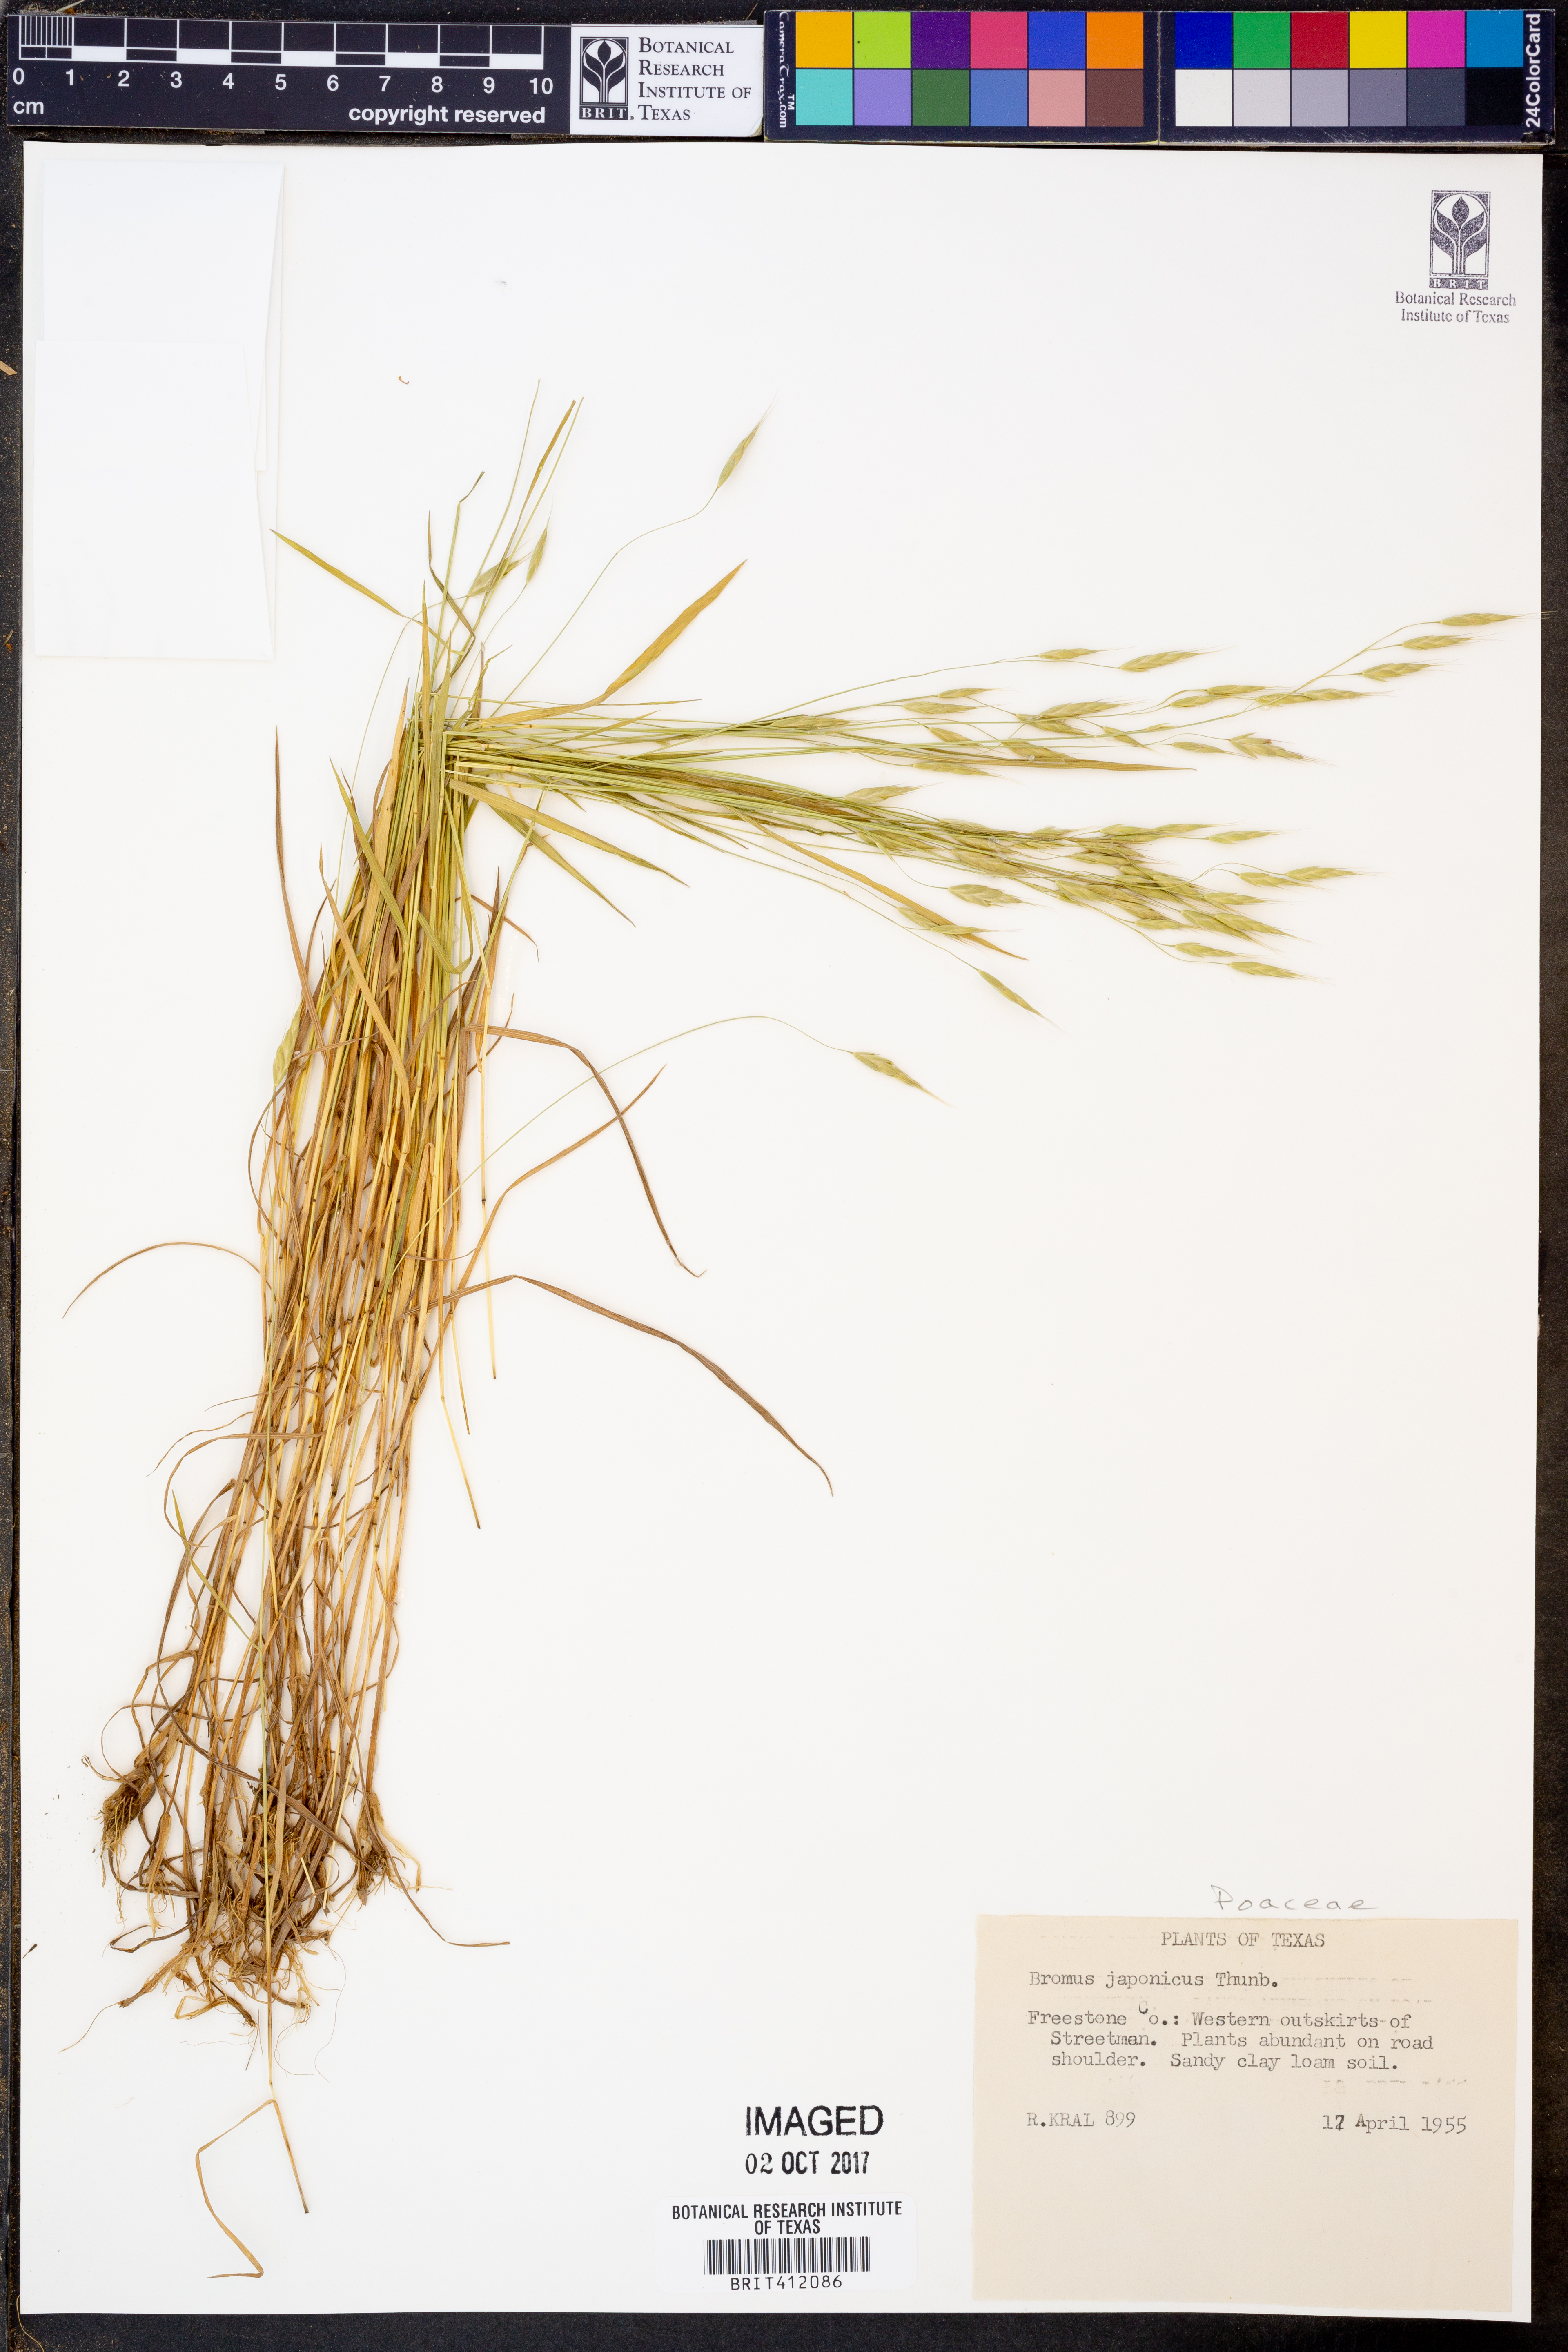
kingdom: Plantae
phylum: Tracheophyta
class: Liliopsida
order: Poales
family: Poaceae
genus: Bromus
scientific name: Bromus japonicus
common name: Japanese brome
